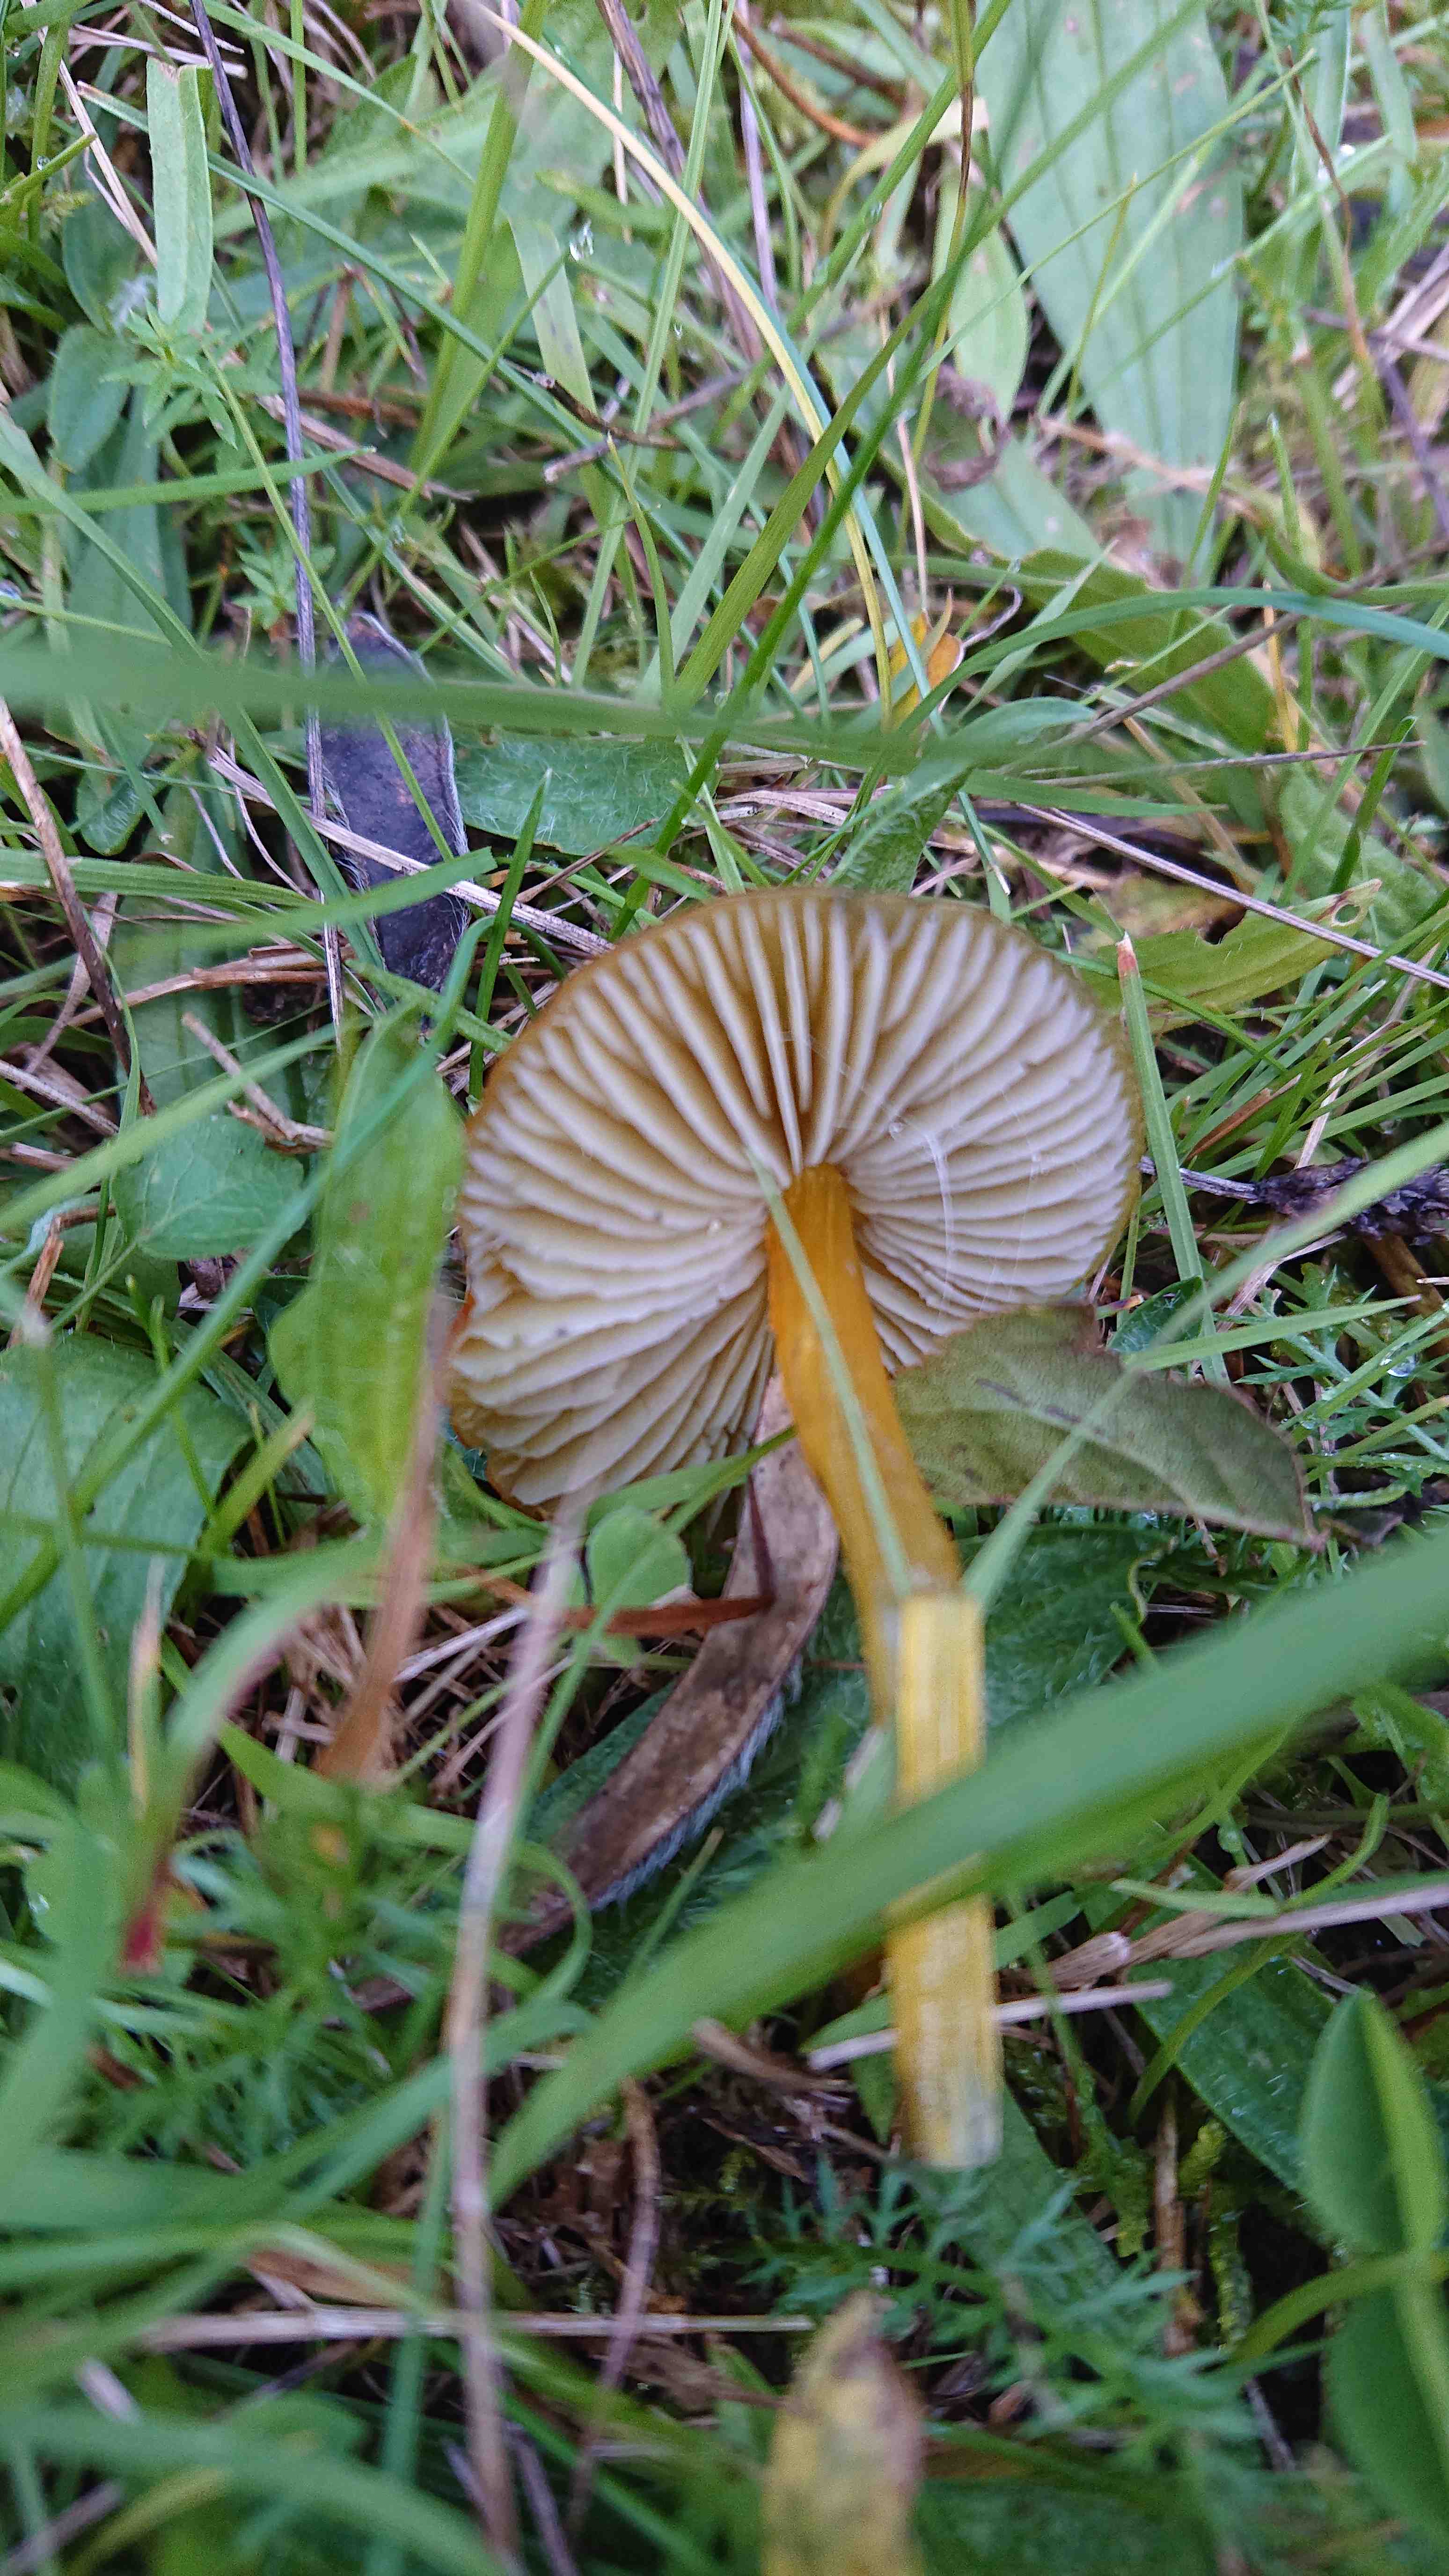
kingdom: Fungi
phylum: Basidiomycota
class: Agaricomycetes
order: Agaricales
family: Hygrophoraceae
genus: Hygrocybe
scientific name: Hygrocybe conica
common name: kegle-vokshat
